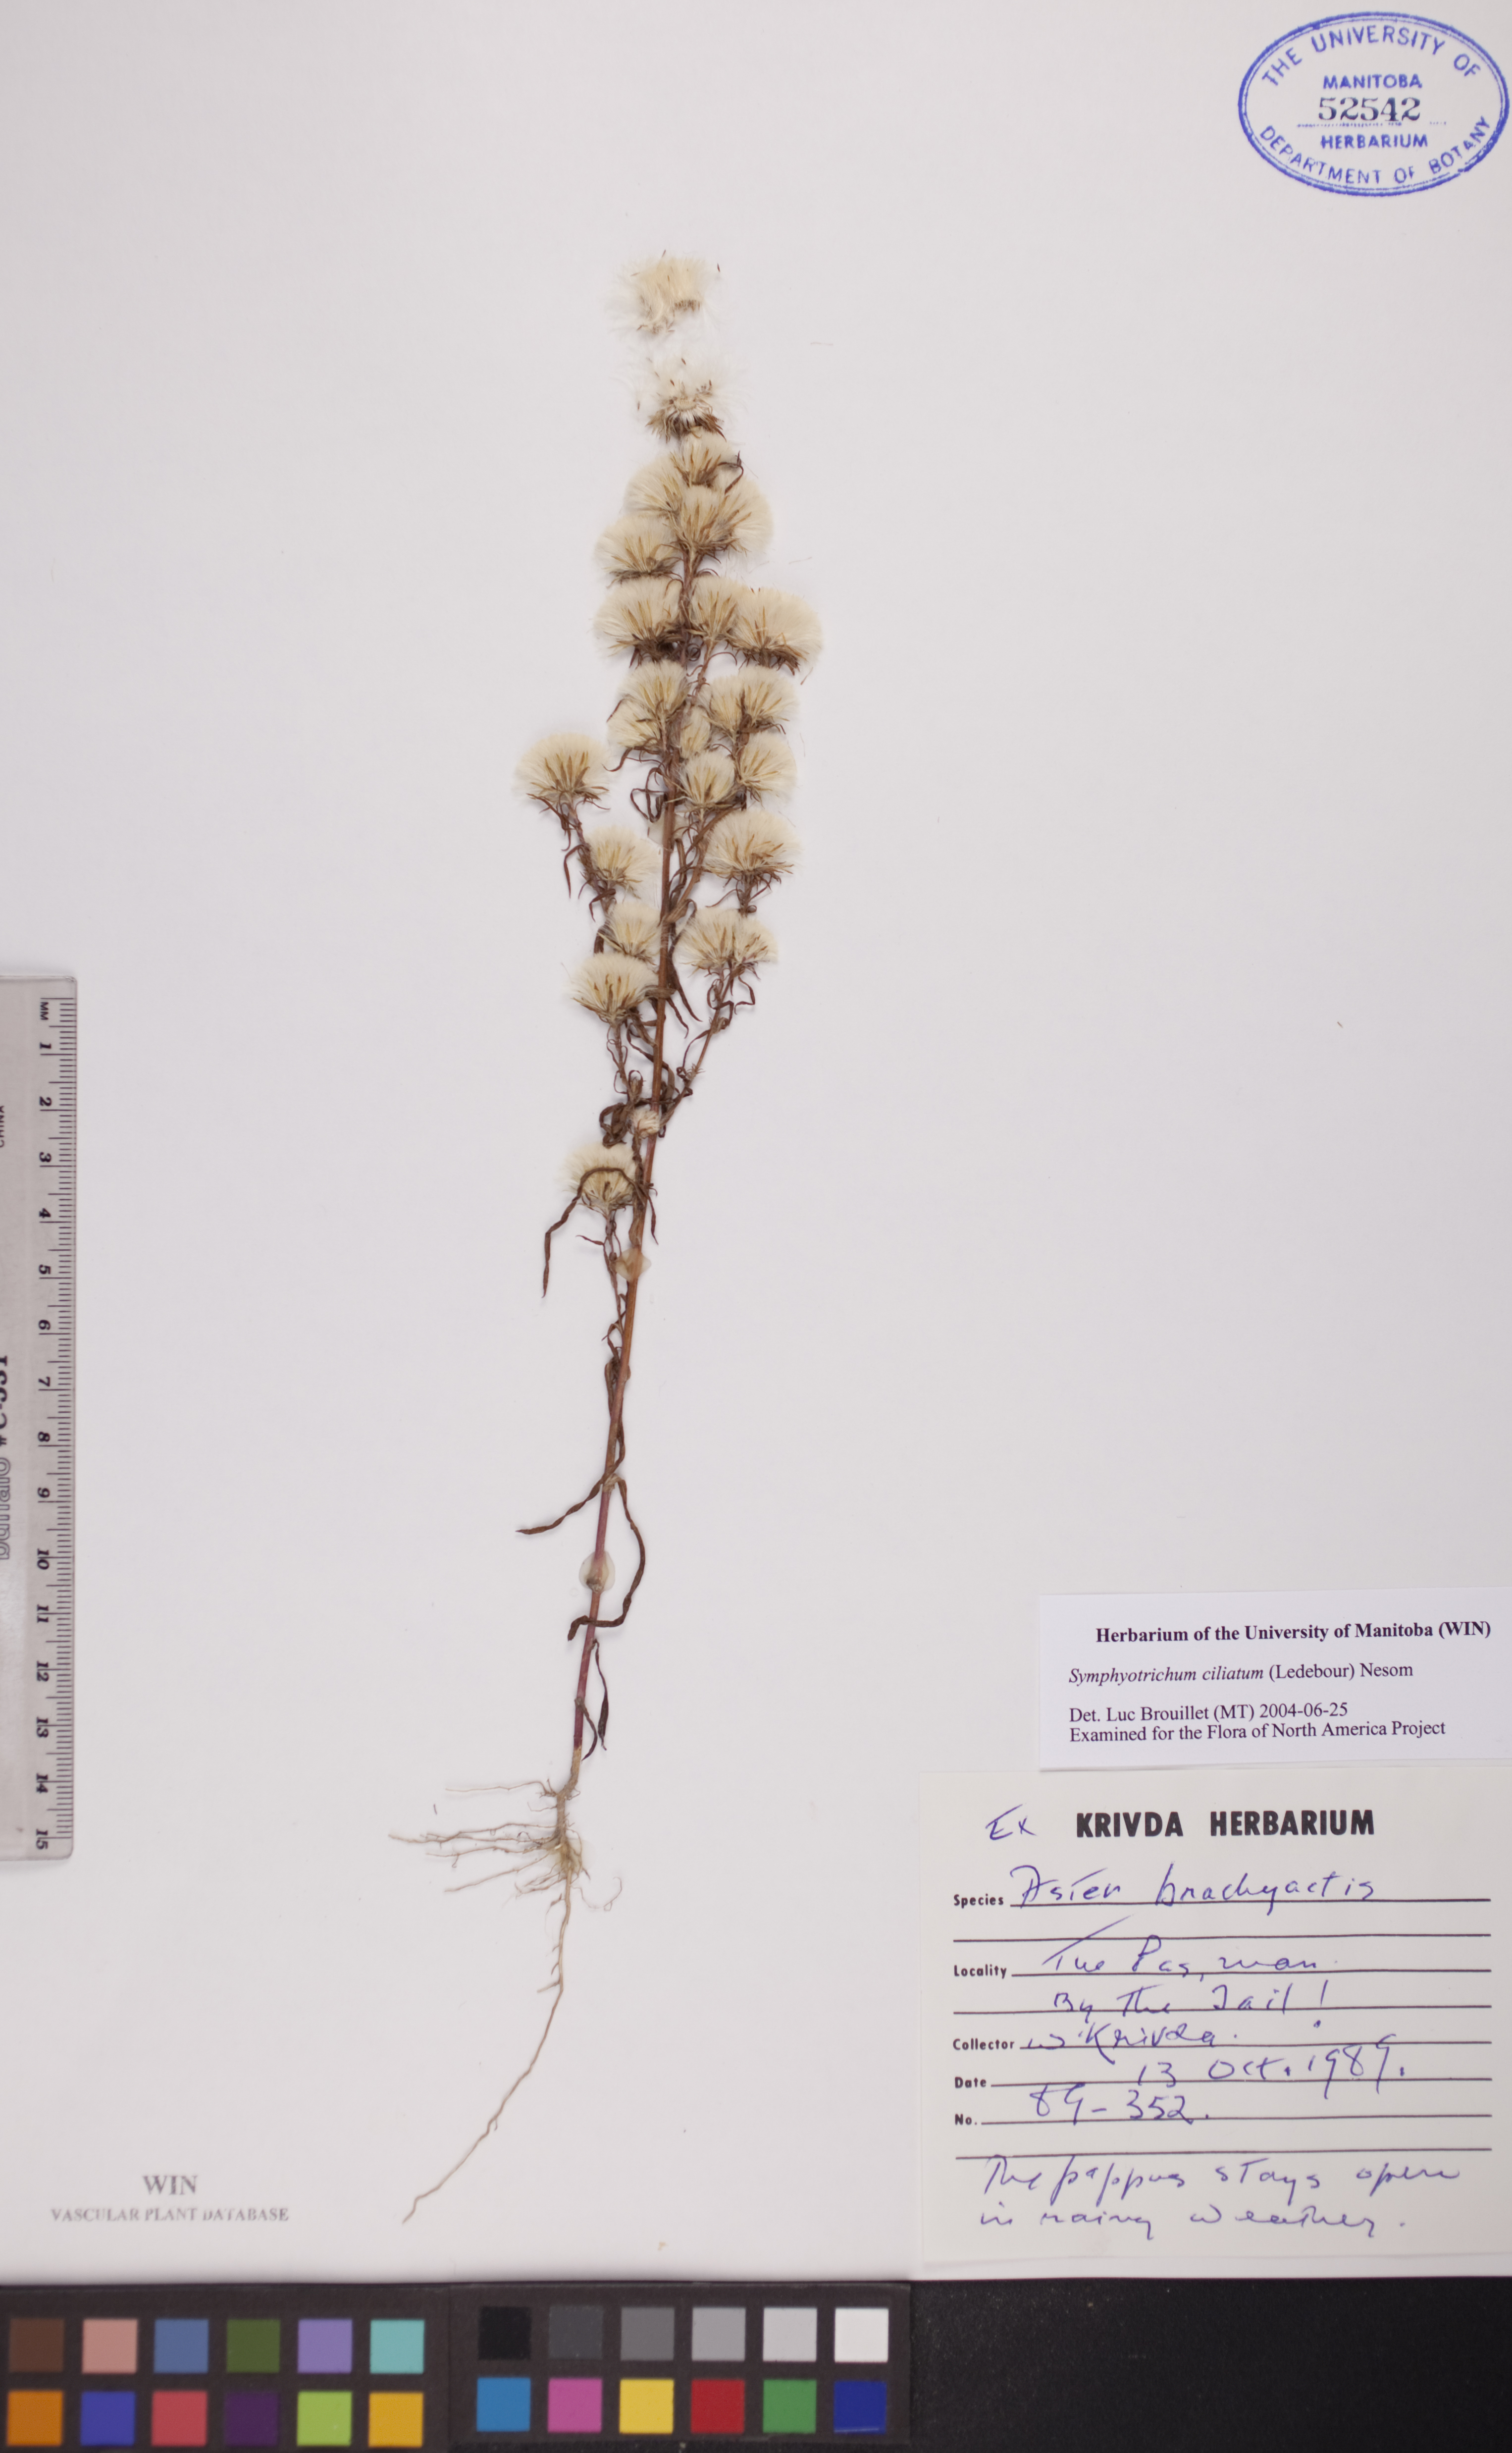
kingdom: Plantae
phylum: Tracheophyta
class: Magnoliopsida
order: Asterales
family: Asteraceae
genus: Symphyotrichum
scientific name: Symphyotrichum ciliatum
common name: Rayless annual aster
